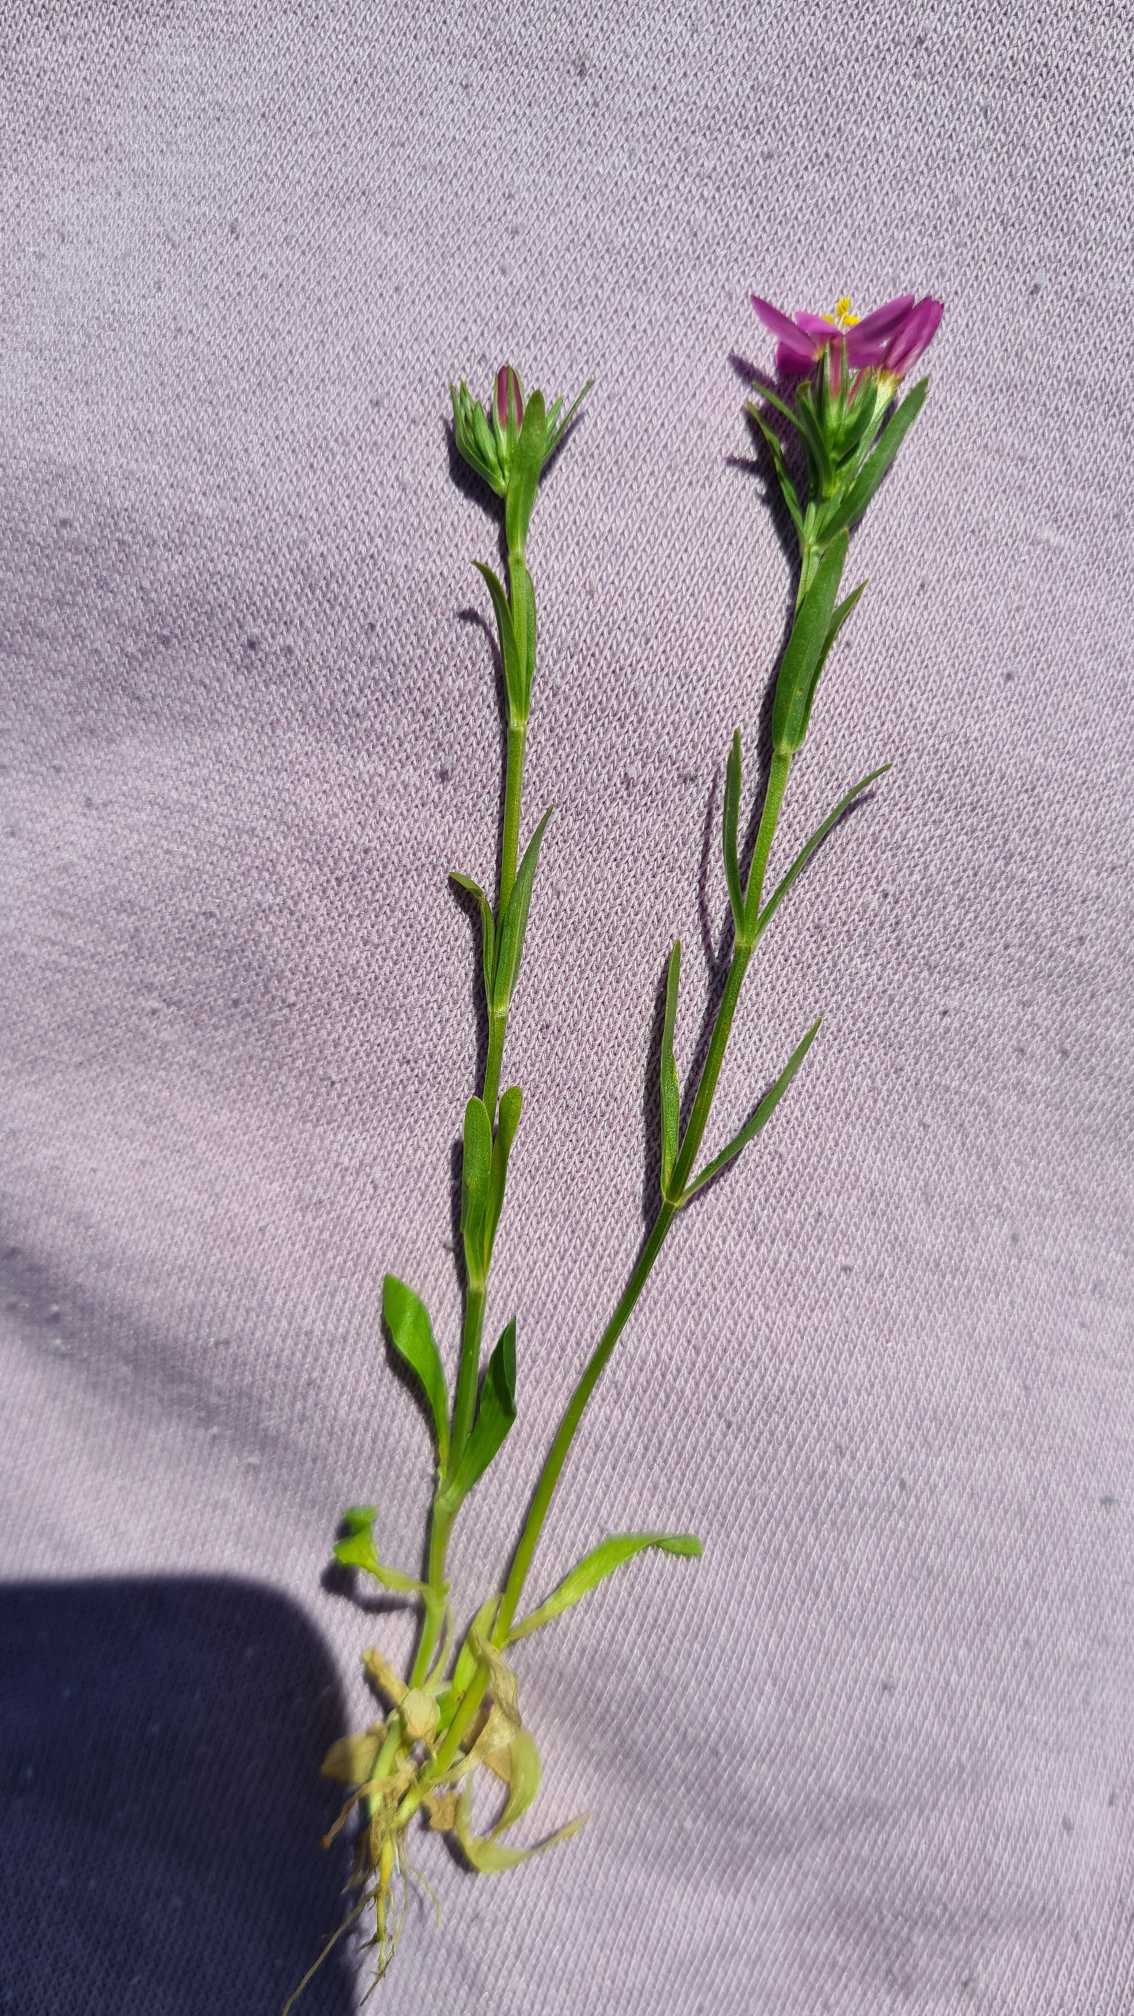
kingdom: Plantae
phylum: Tracheophyta
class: Magnoliopsida
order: Gentianales
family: Gentianaceae
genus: Centaurium
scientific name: Centaurium littorale
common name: Strand-tusindgylden
